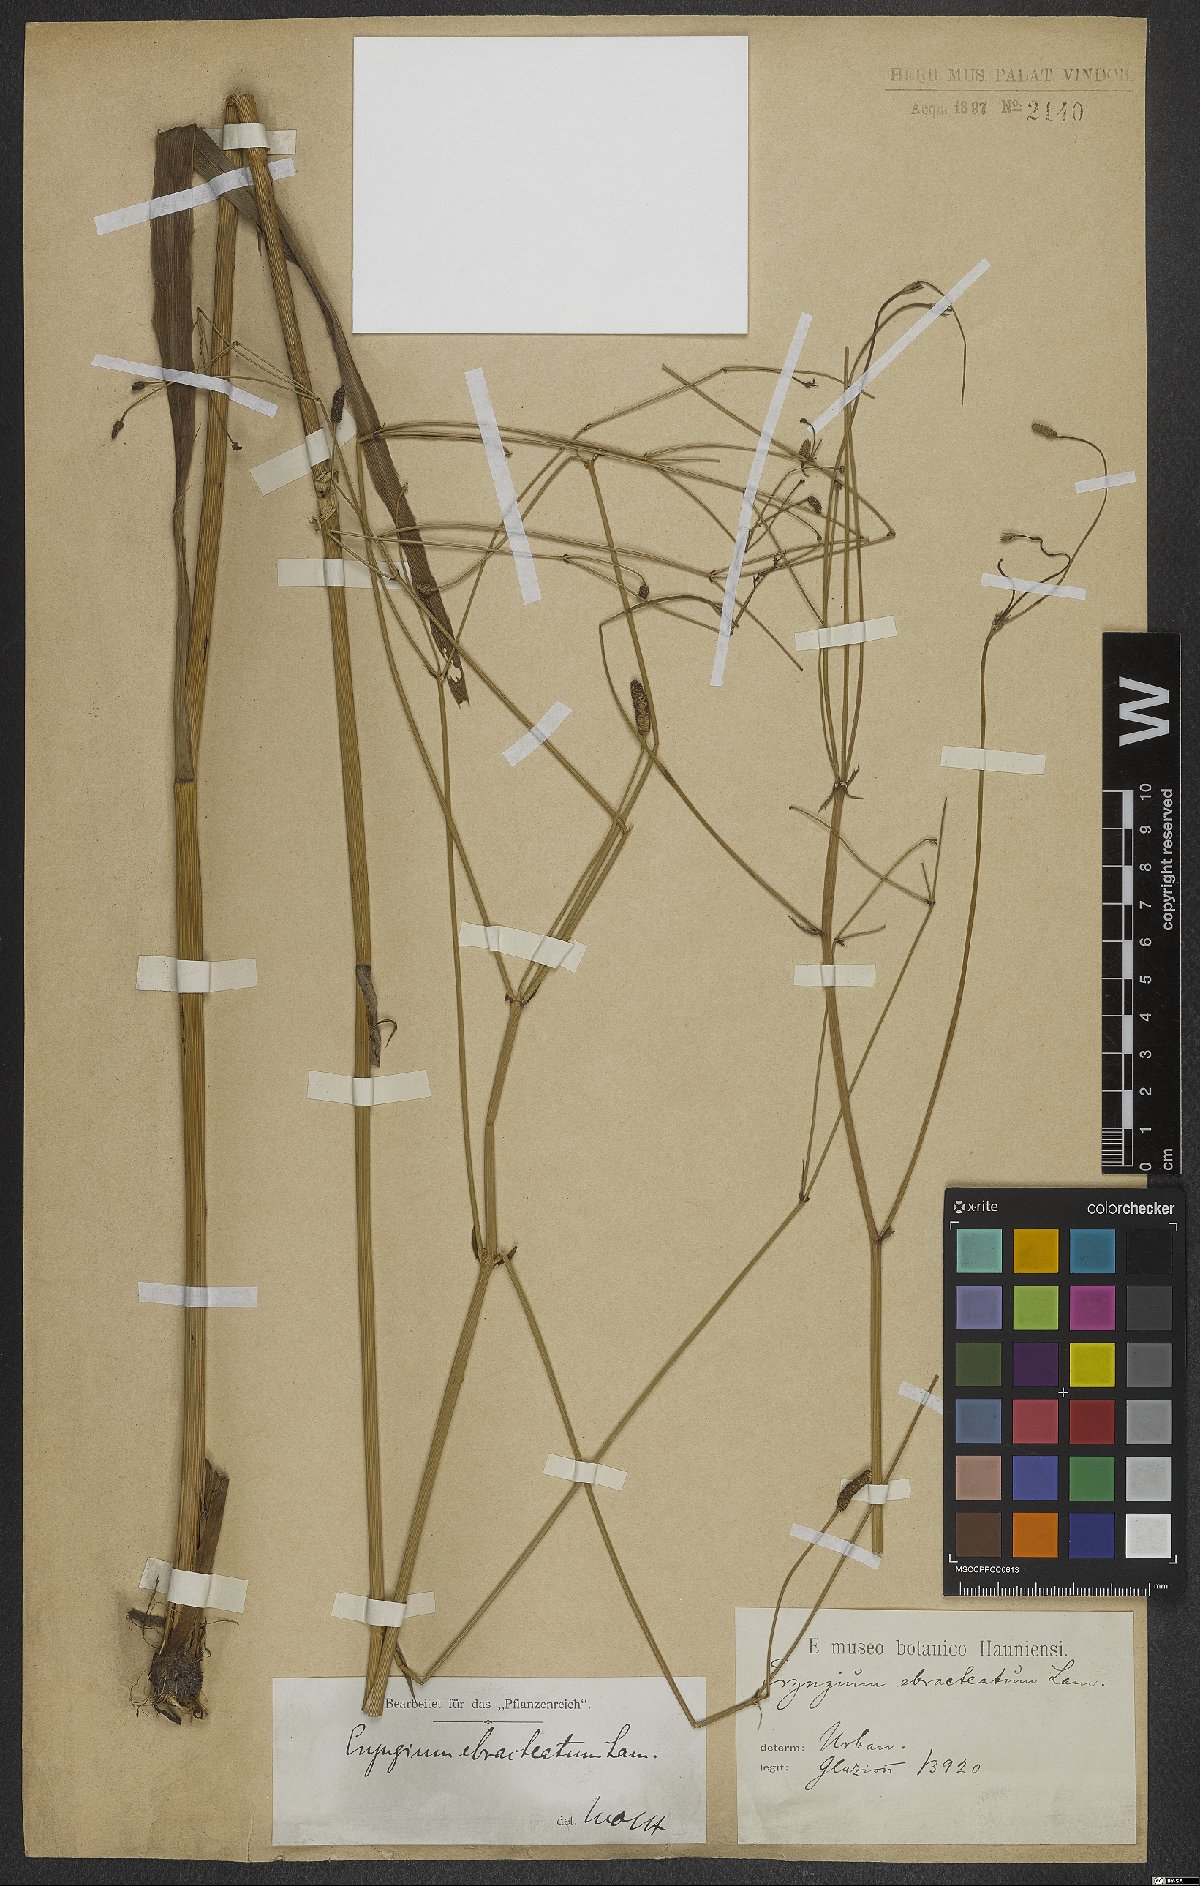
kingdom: Plantae
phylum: Tracheophyta
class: Magnoliopsida
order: Apiales
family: Apiaceae
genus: Eryngium
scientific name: Eryngium ebracteatum
